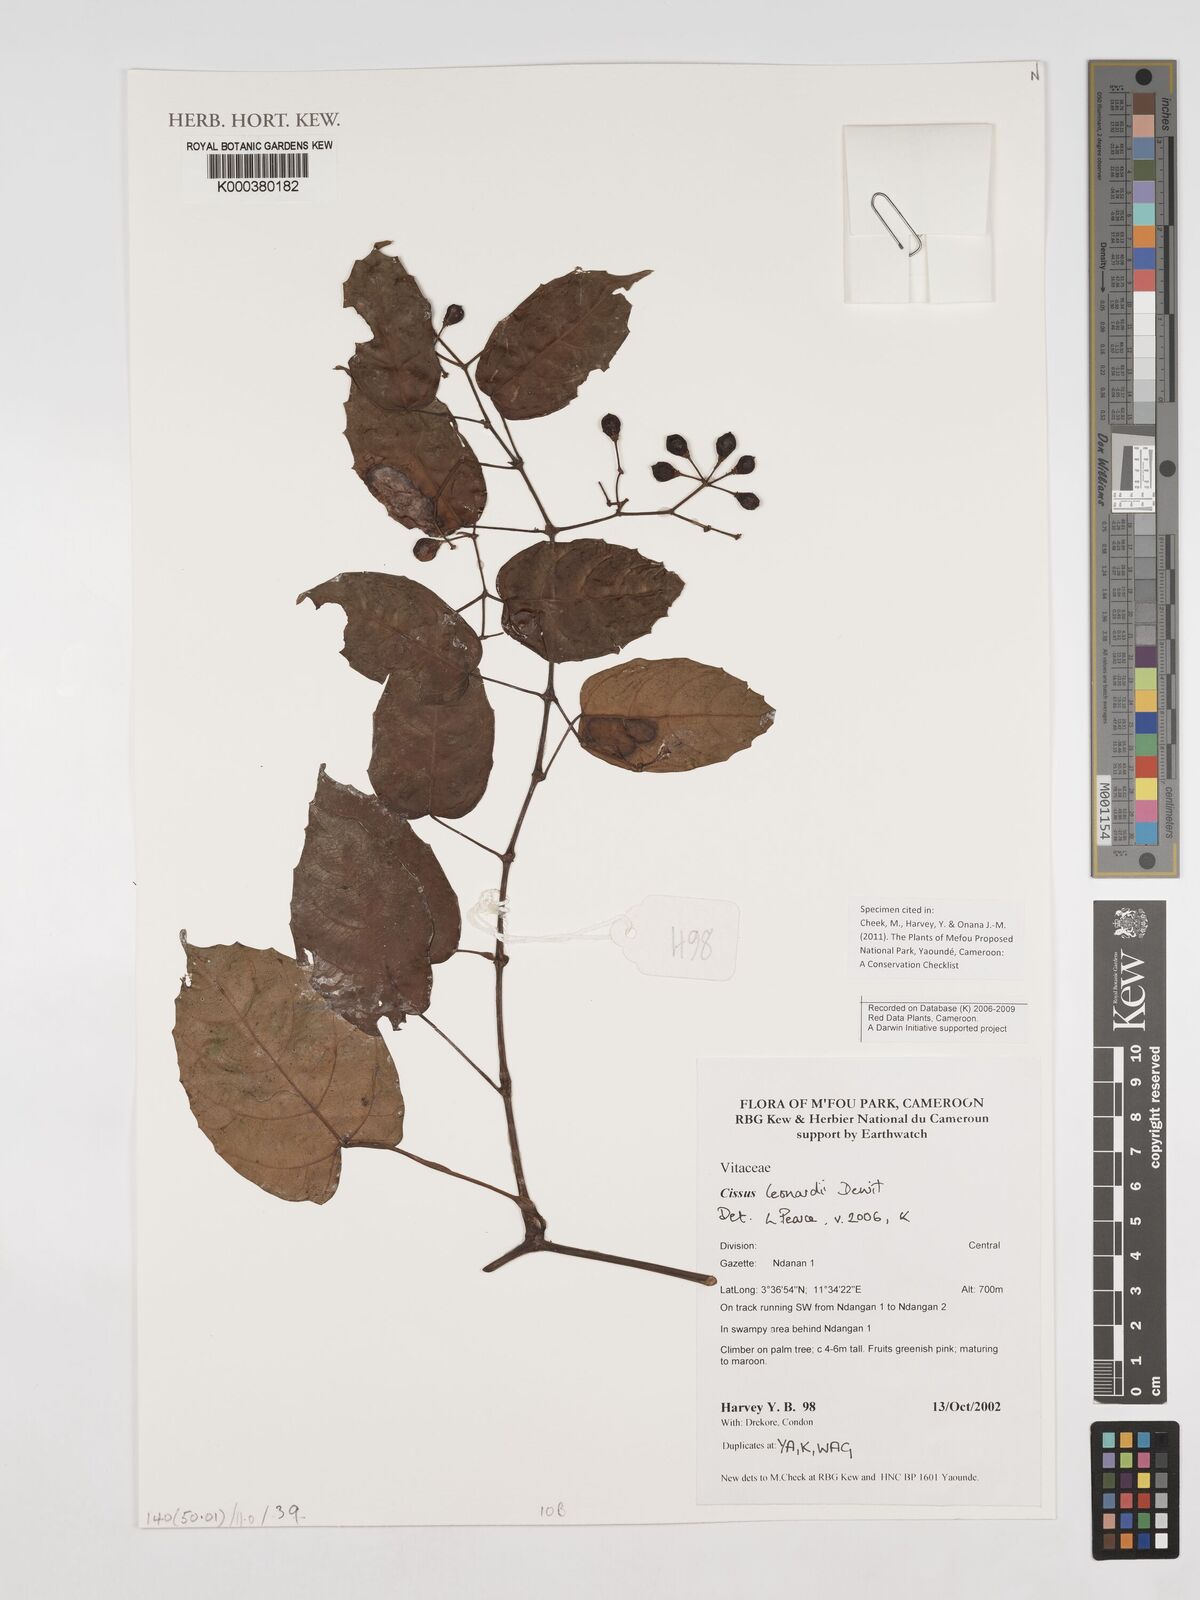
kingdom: Plantae
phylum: Tracheophyta
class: Magnoliopsida
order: Vitales
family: Vitaceae
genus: Cissus
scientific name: Cissus leonardii
